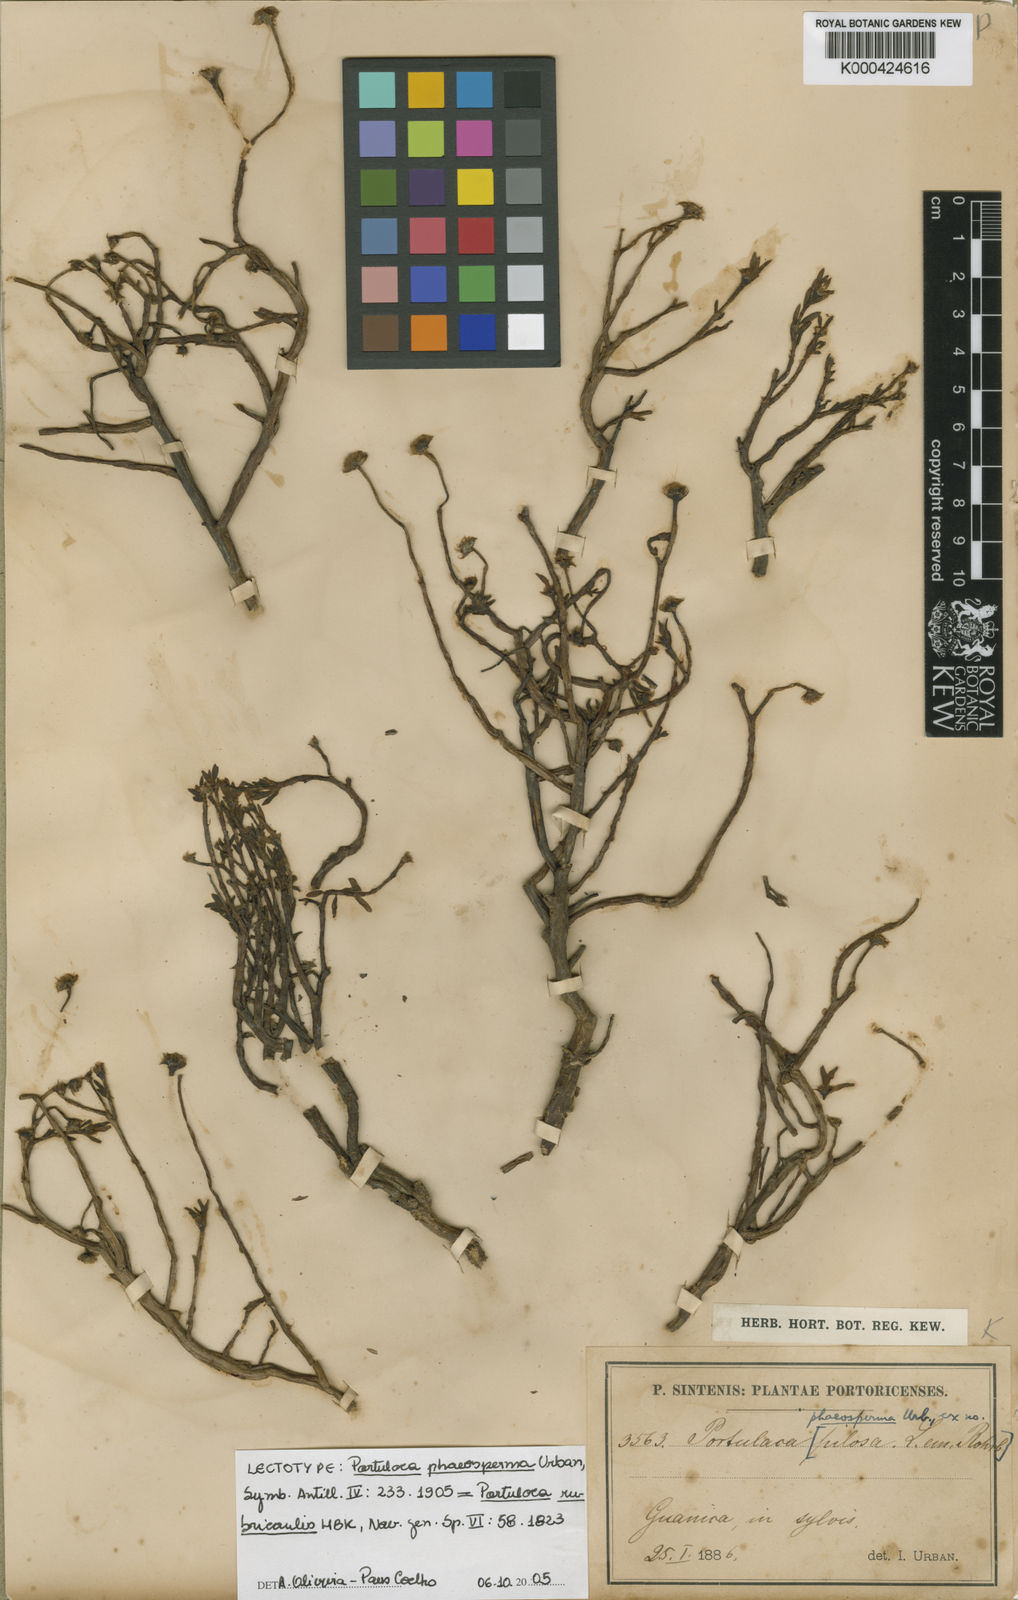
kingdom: Plantae
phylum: Tracheophyta
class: Magnoliopsida
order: Caryophyllales
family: Portulacaceae
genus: Portulaca
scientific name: Portulaca rubricaulis
